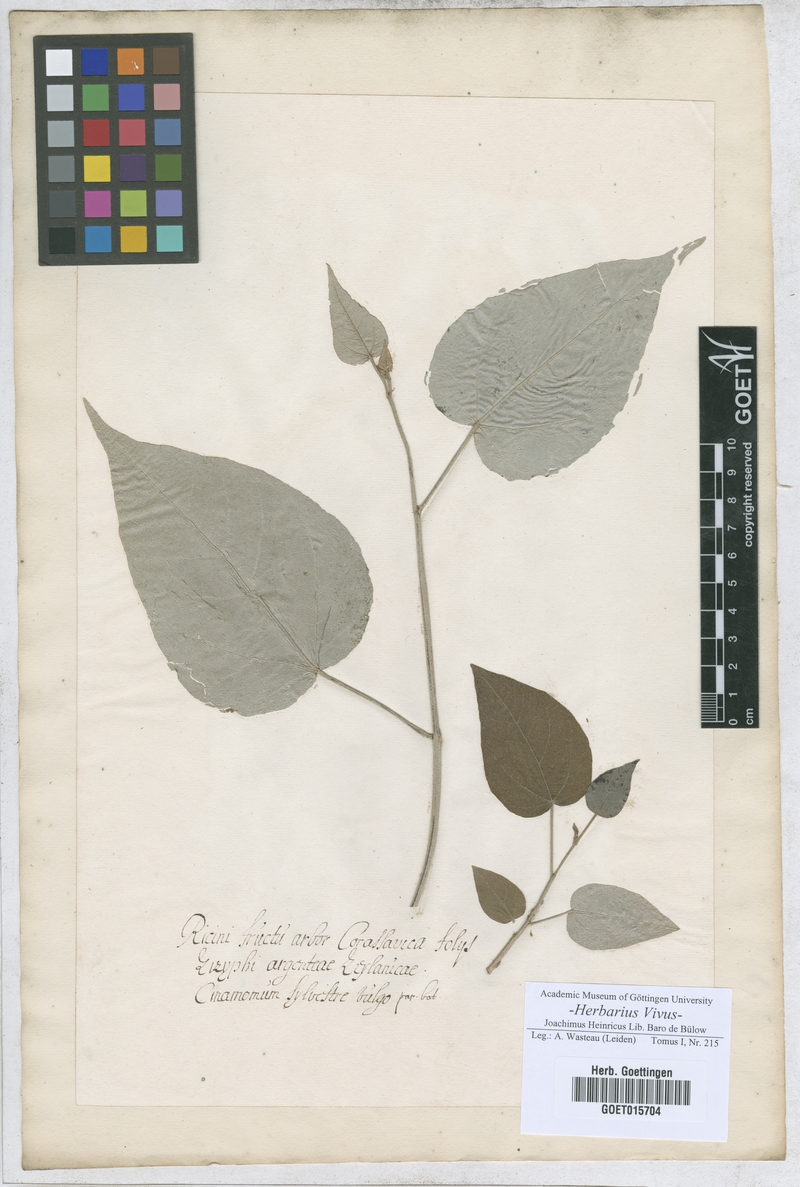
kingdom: Plantae
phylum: Tracheophyta
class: Magnoliopsida
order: Laurales
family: Lauraceae
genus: Cinnamomum
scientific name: Cinnamomum
